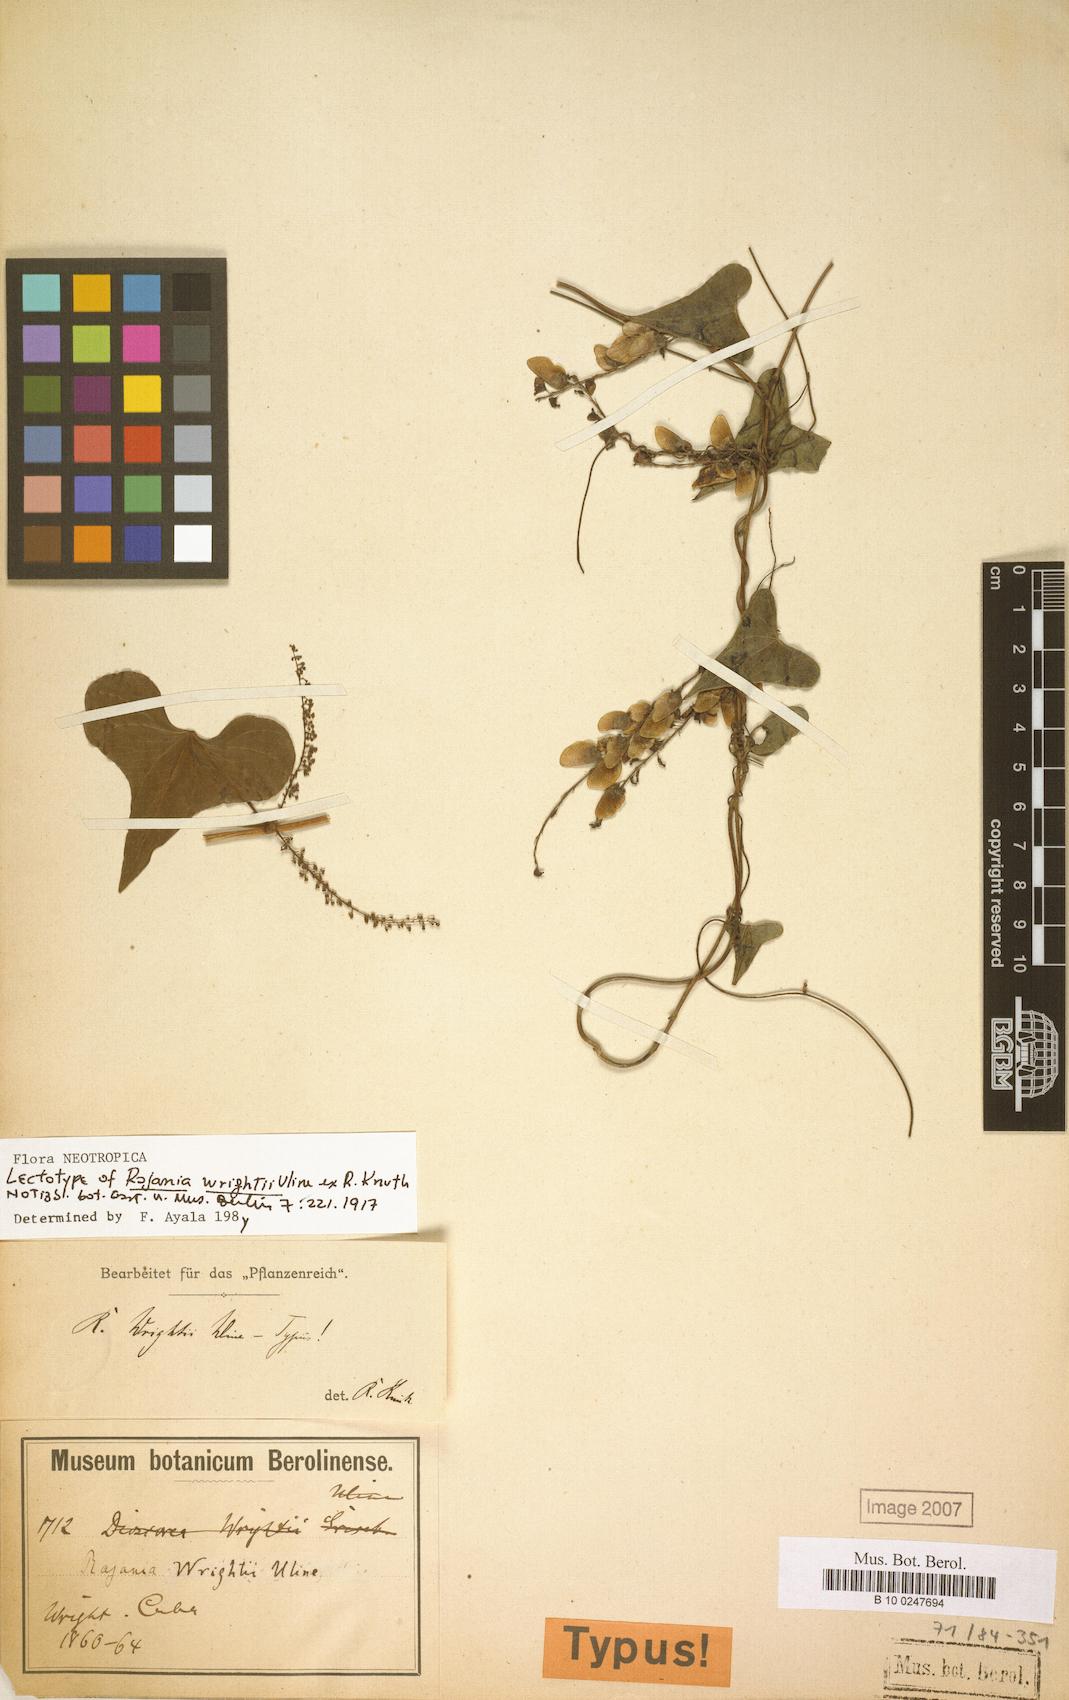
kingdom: Plantae
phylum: Tracheophyta
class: Liliopsida
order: Dioscoreales
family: Dioscoreaceae
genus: Dioscorea
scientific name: Dioscorea psilostachya
